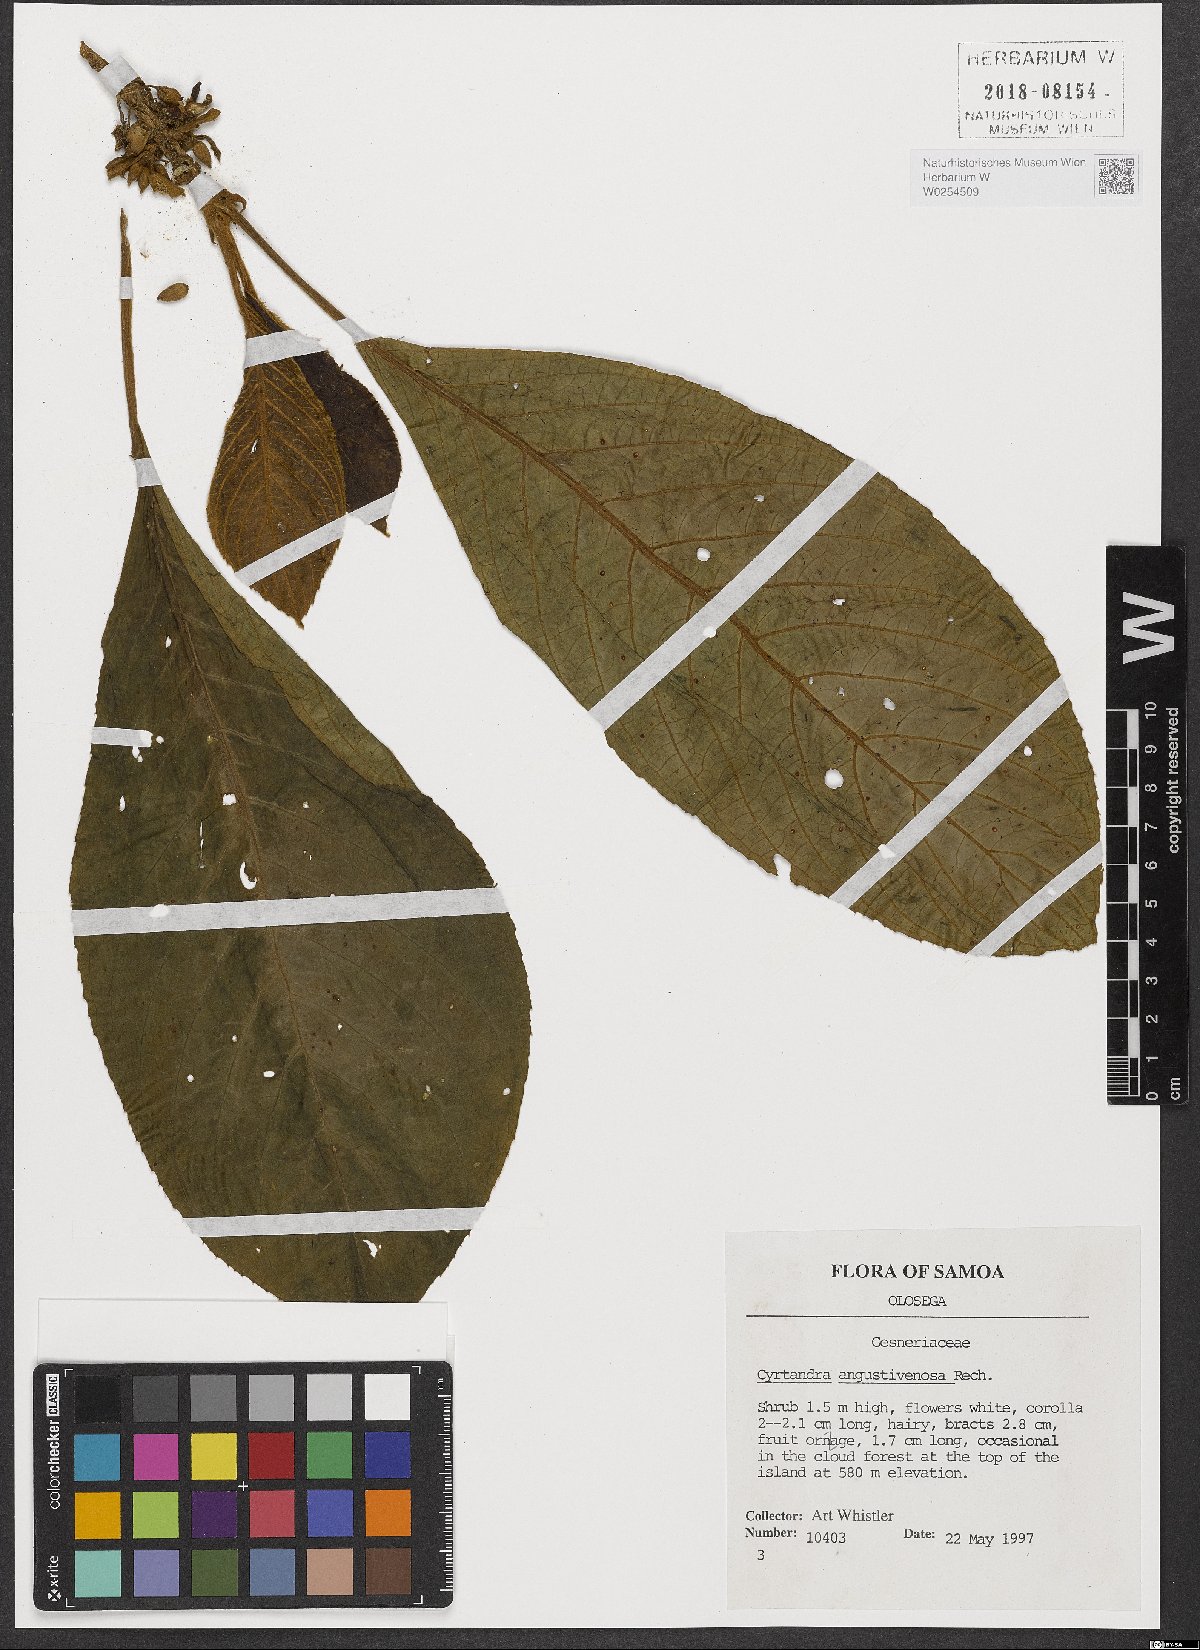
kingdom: Plantae
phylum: Tracheophyta
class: Magnoliopsida
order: Lamiales
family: Gesneriaceae
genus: Cyrtandra
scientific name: Cyrtandra angustivenosa
